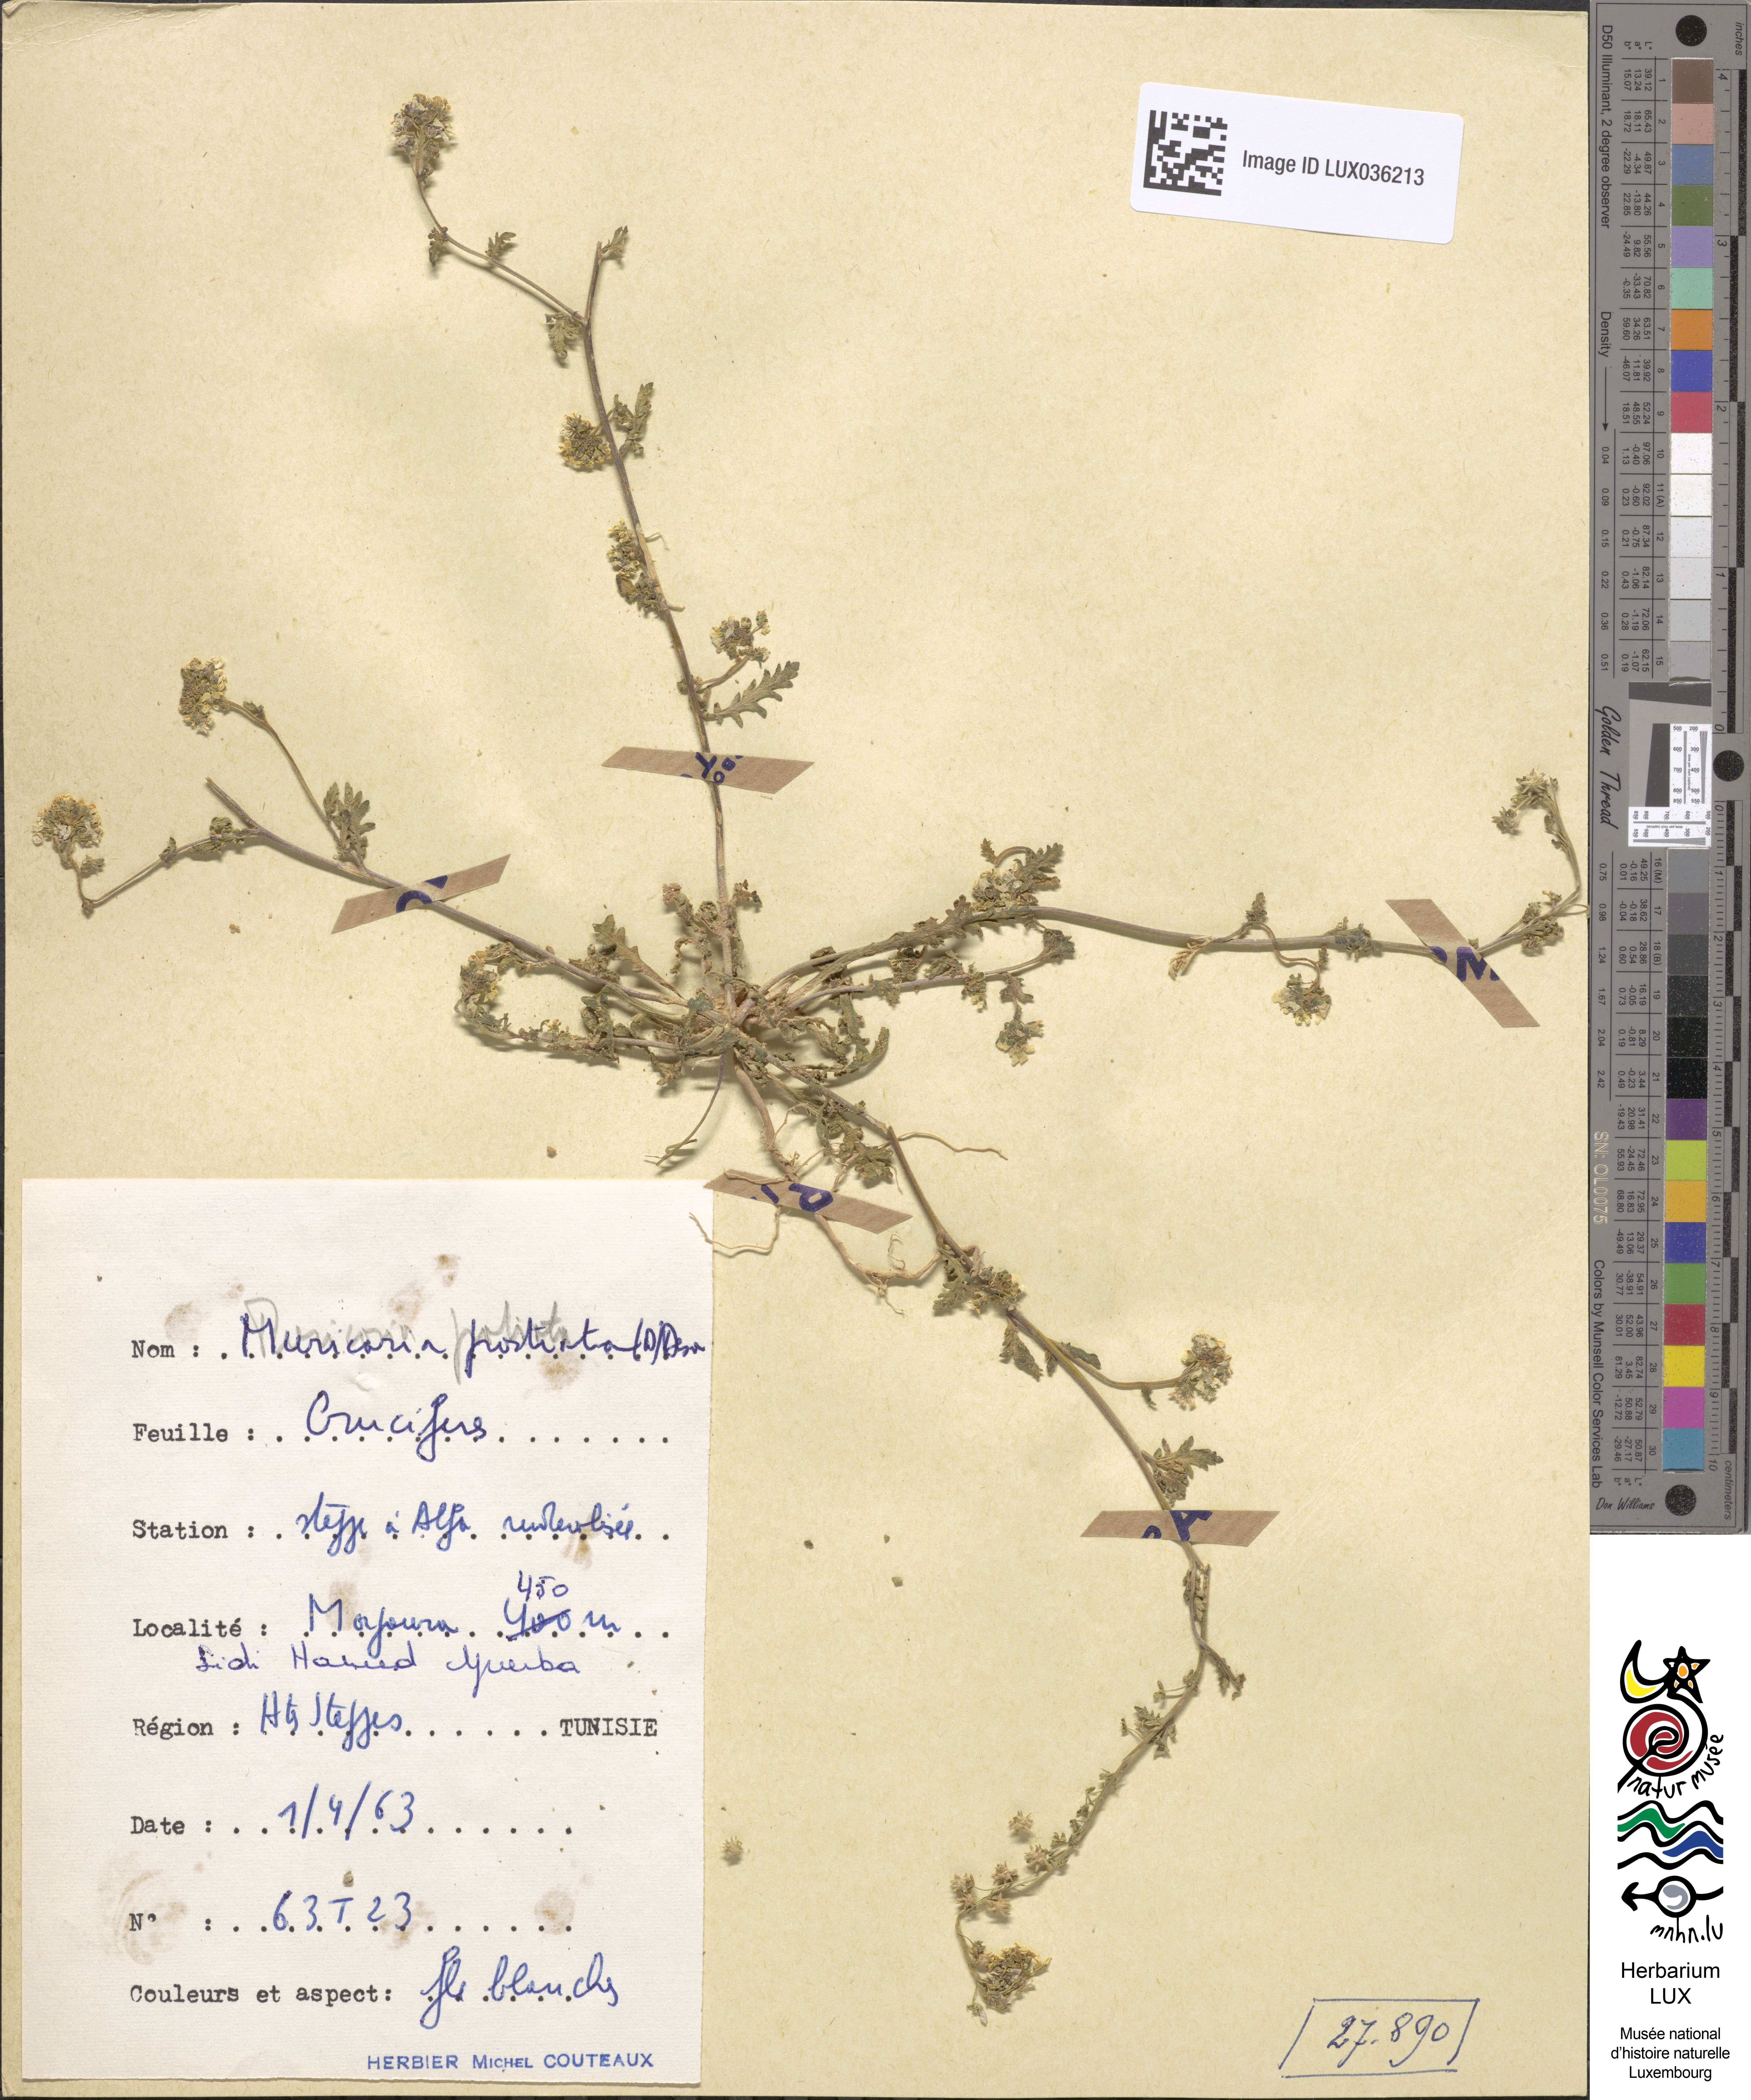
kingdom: Plantae
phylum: Tracheophyta
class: Magnoliopsida
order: Brassicales
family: Brassicaceae
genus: Muricaria
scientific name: Muricaria prostrata
